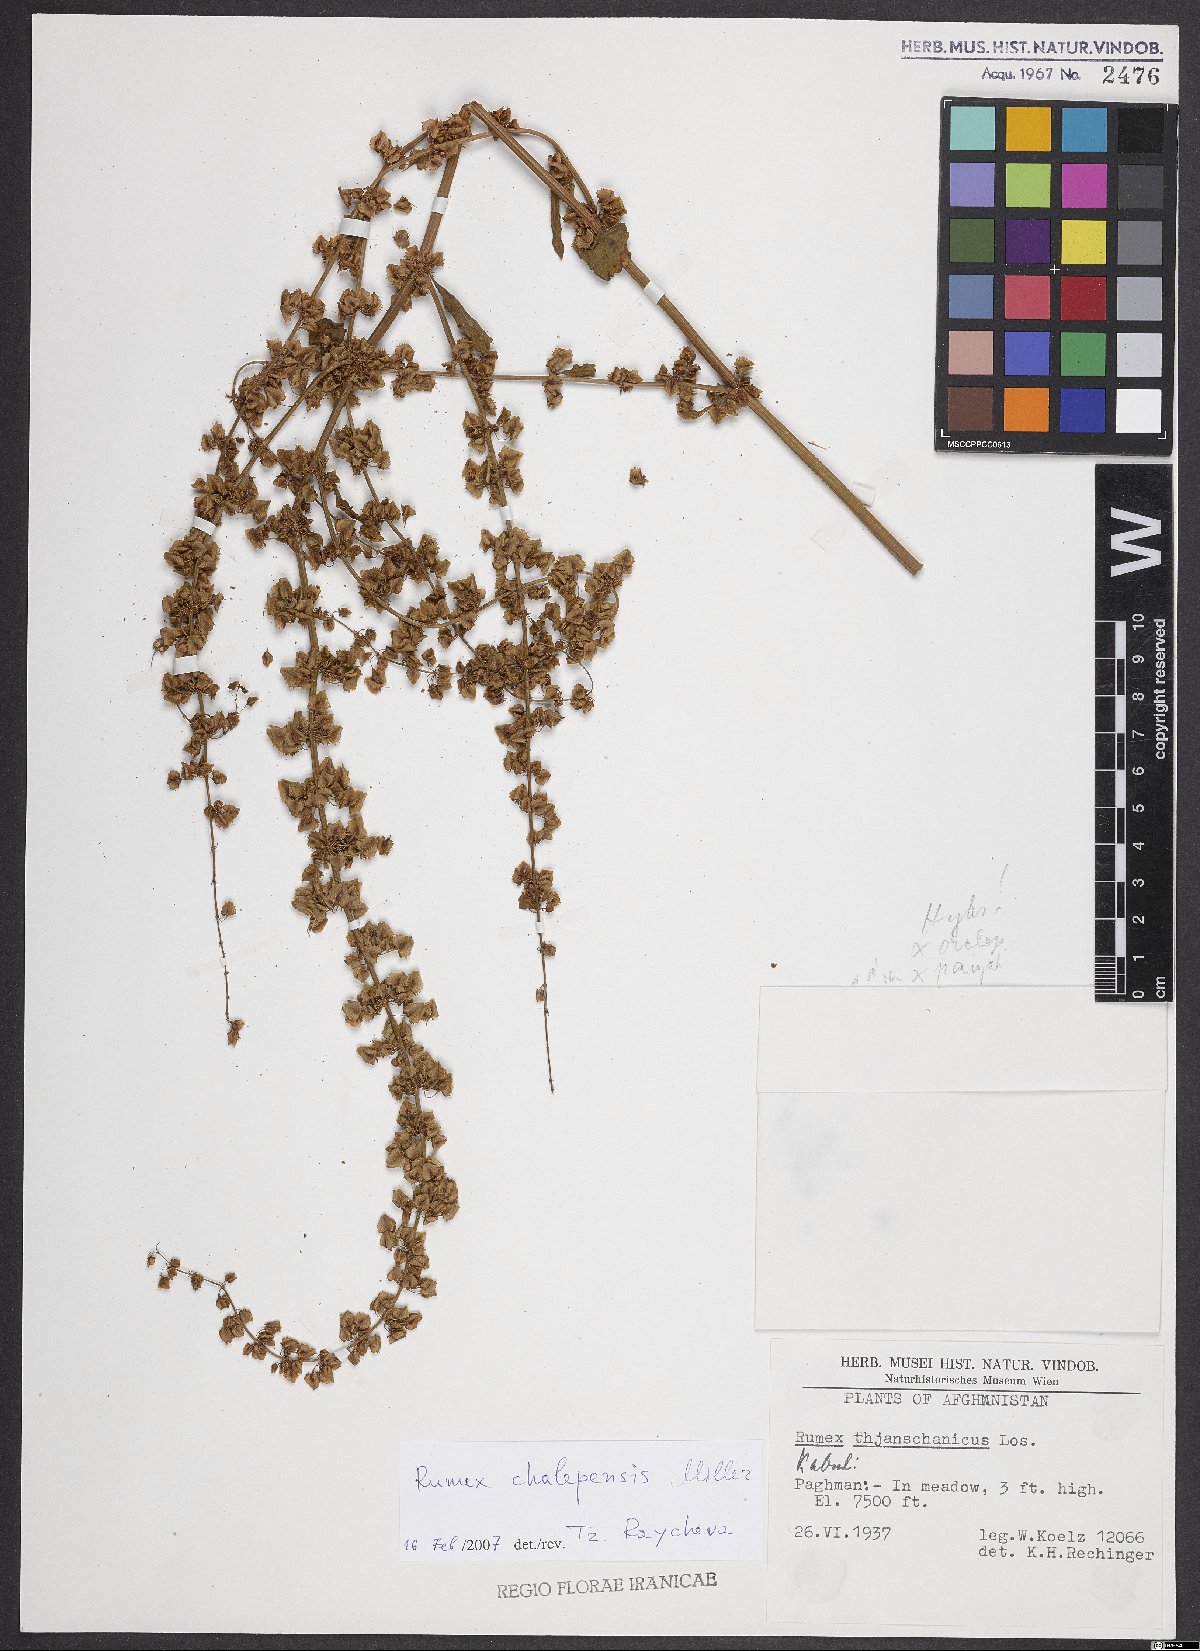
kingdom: Plantae
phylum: Tracheophyta
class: Magnoliopsida
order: Caryophyllales
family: Polygonaceae
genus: Rumex
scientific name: Rumex chalepensis
